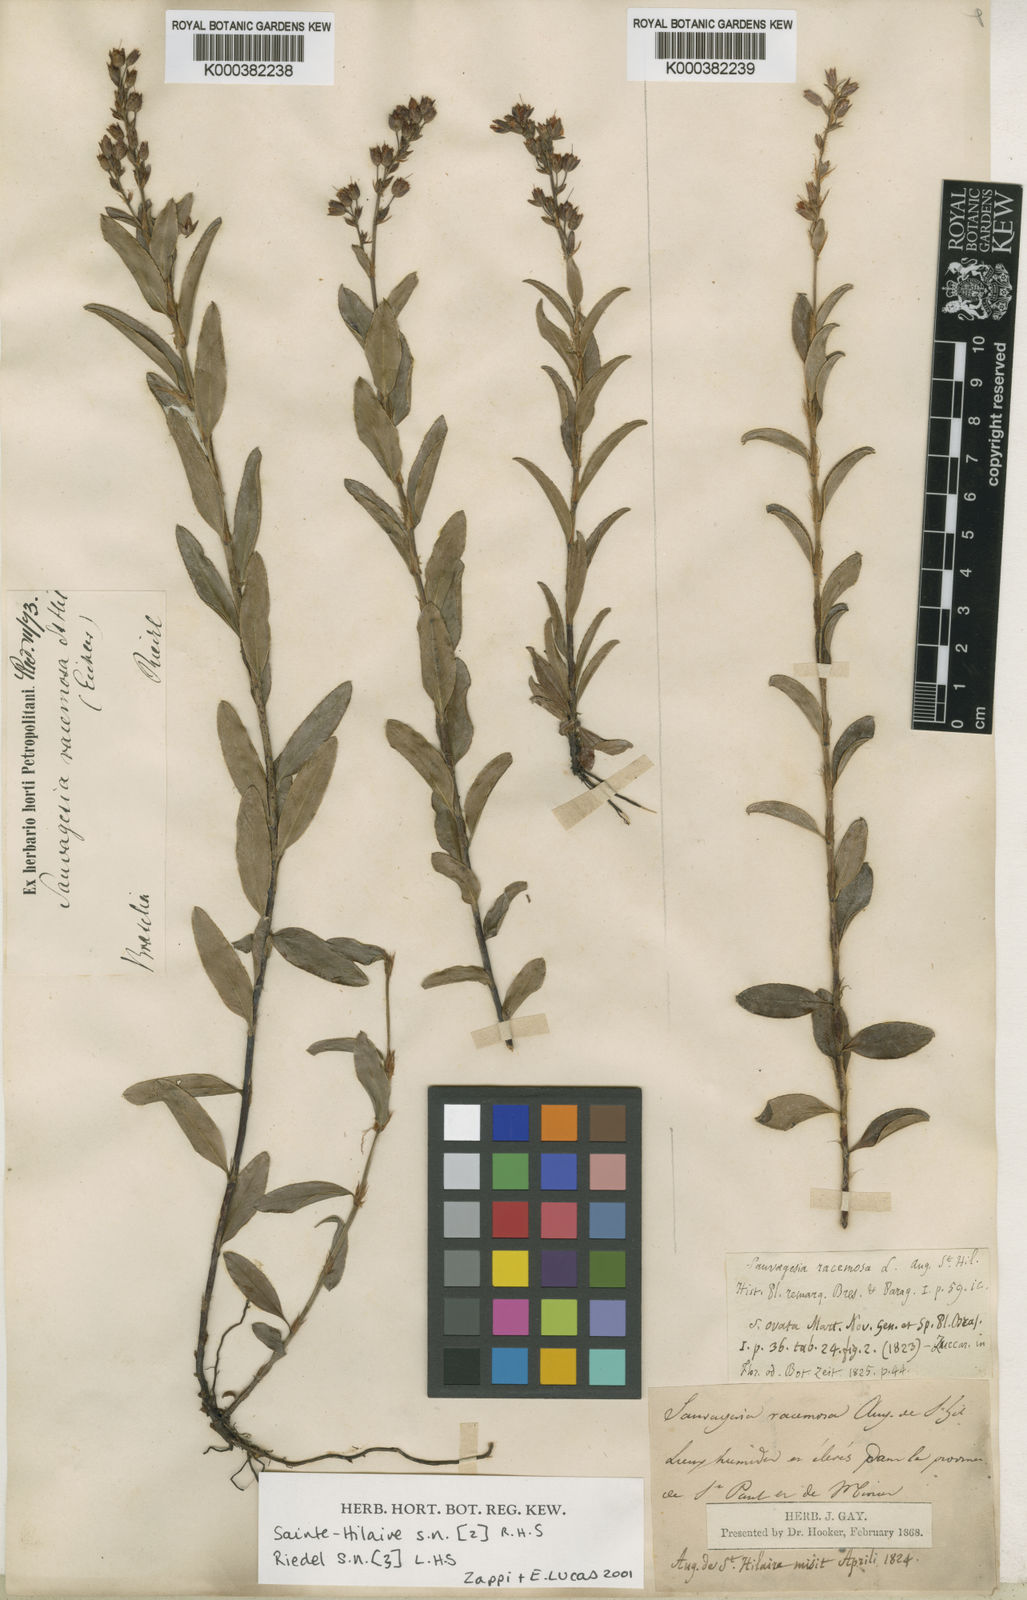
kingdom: Plantae
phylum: Tracheophyta
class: Magnoliopsida
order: Malpighiales
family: Ochnaceae
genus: Sauvagesia
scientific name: Sauvagesia racemosa
